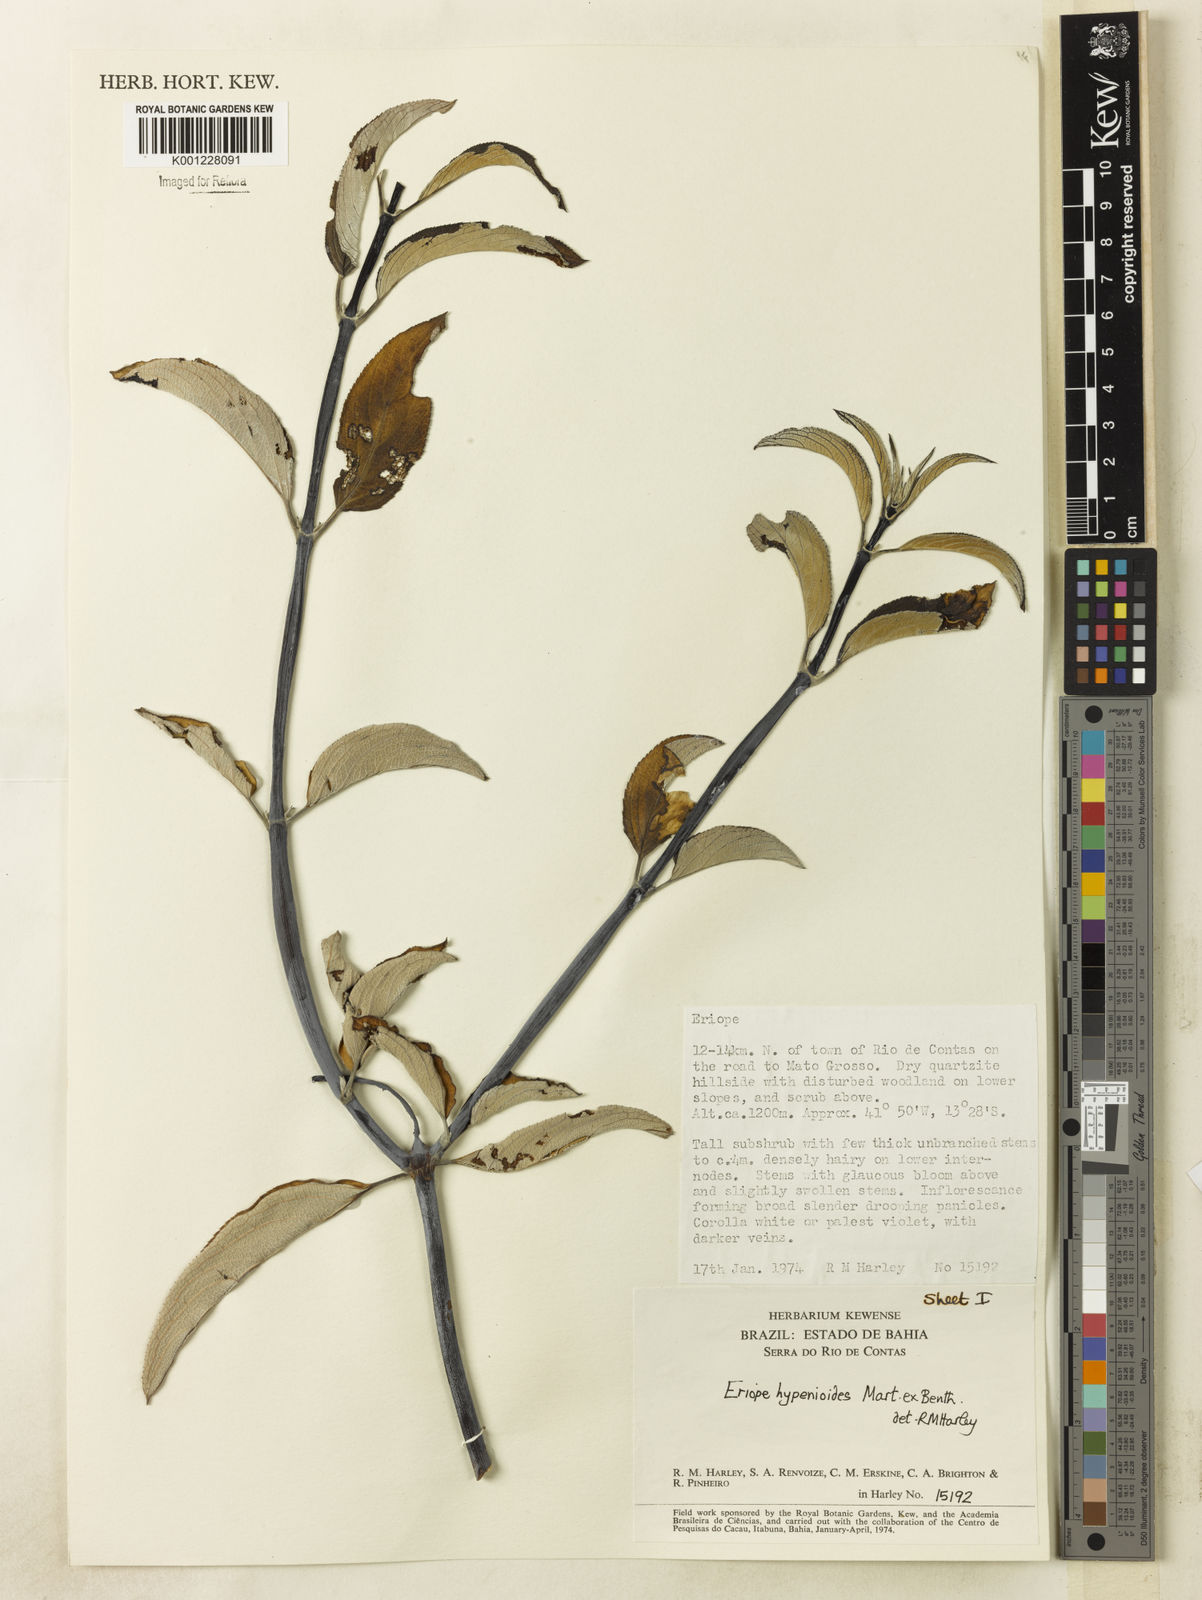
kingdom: Plantae
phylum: Tracheophyta
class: Magnoliopsida
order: Lamiales
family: Lamiaceae
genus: Eriope
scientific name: Eriope hypenioides
